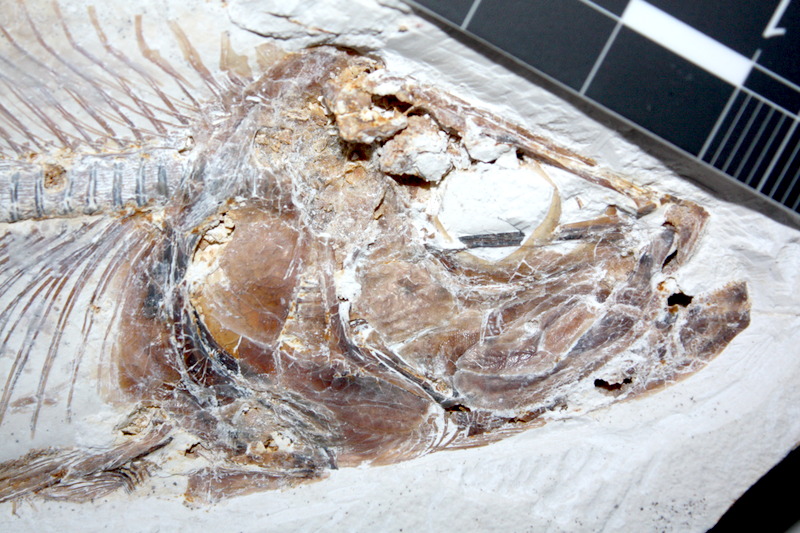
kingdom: Animalia
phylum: Chordata
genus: Pachythrissops
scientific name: Pachythrissops propterus
